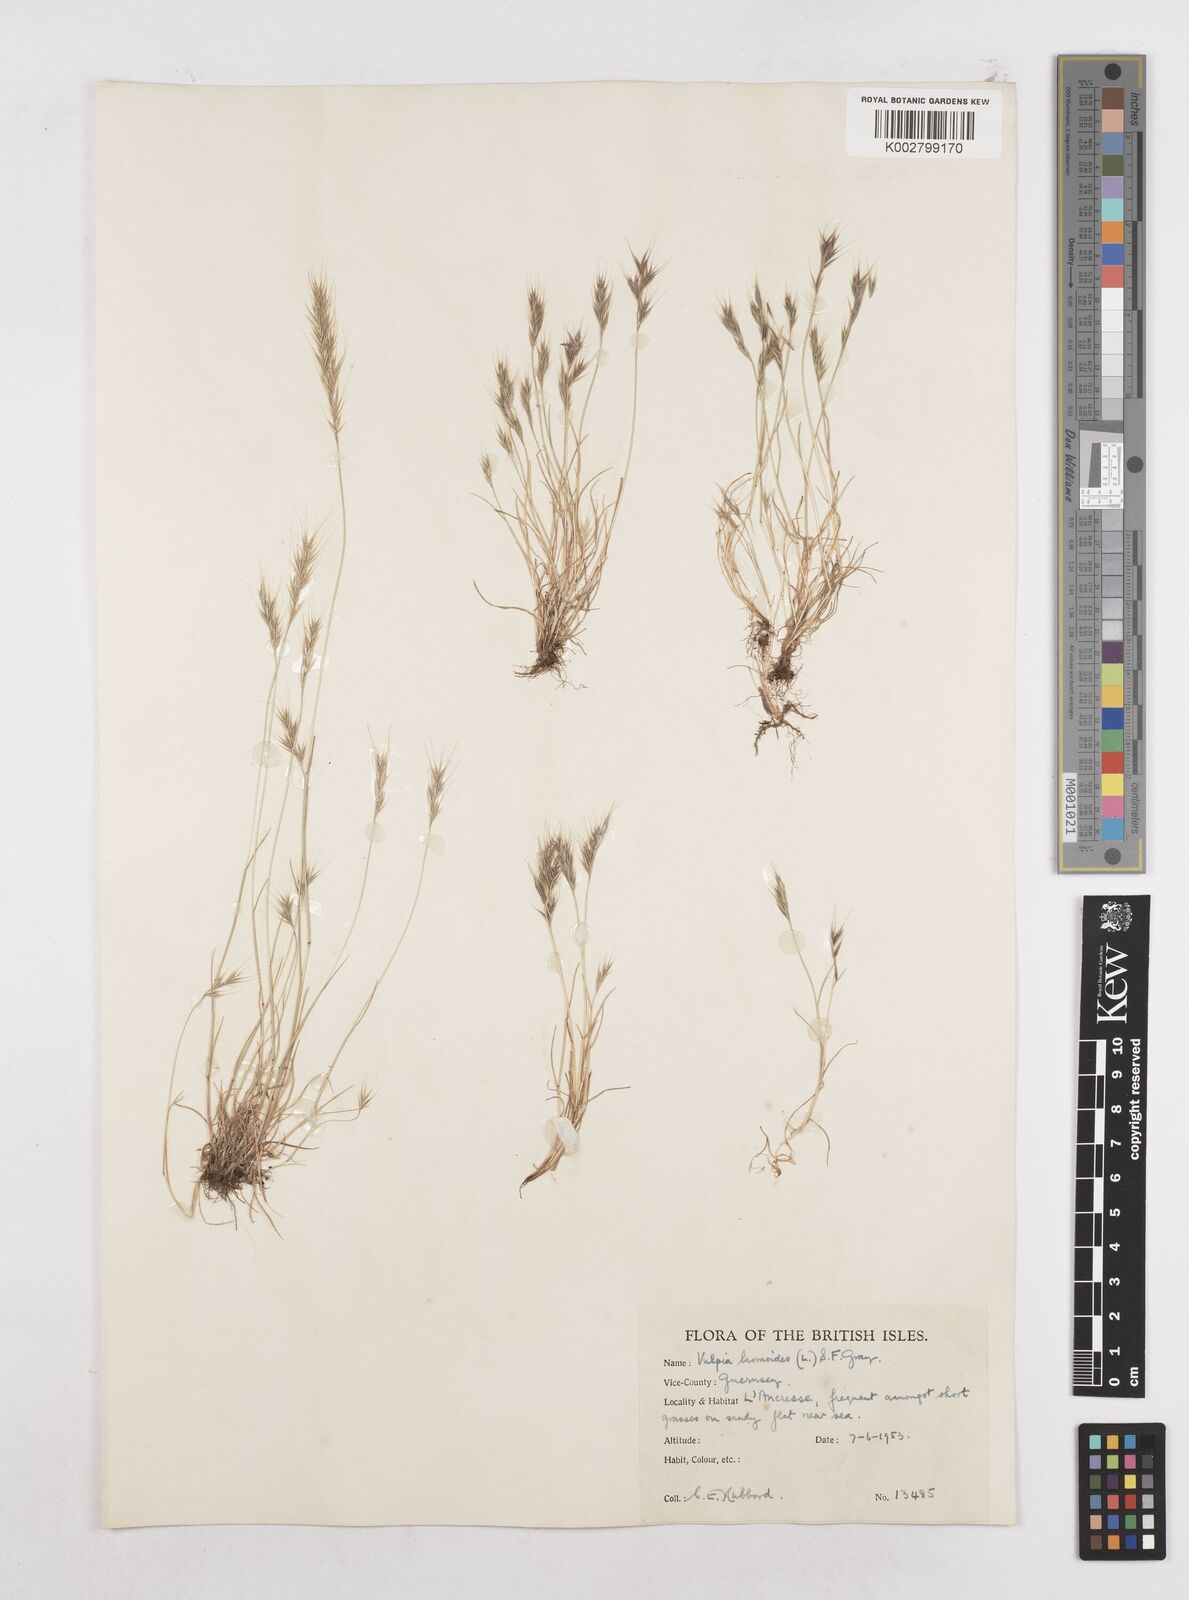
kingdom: Plantae
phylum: Tracheophyta
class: Liliopsida
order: Poales
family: Poaceae
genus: Festuca
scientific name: Festuca bromoides
